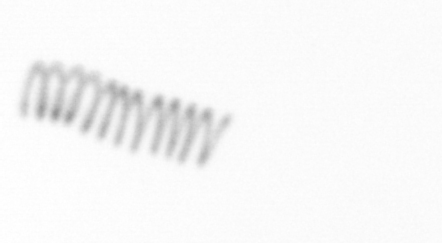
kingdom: Chromista
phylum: Ochrophyta
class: Bacillariophyceae
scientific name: Bacillariophyceae
